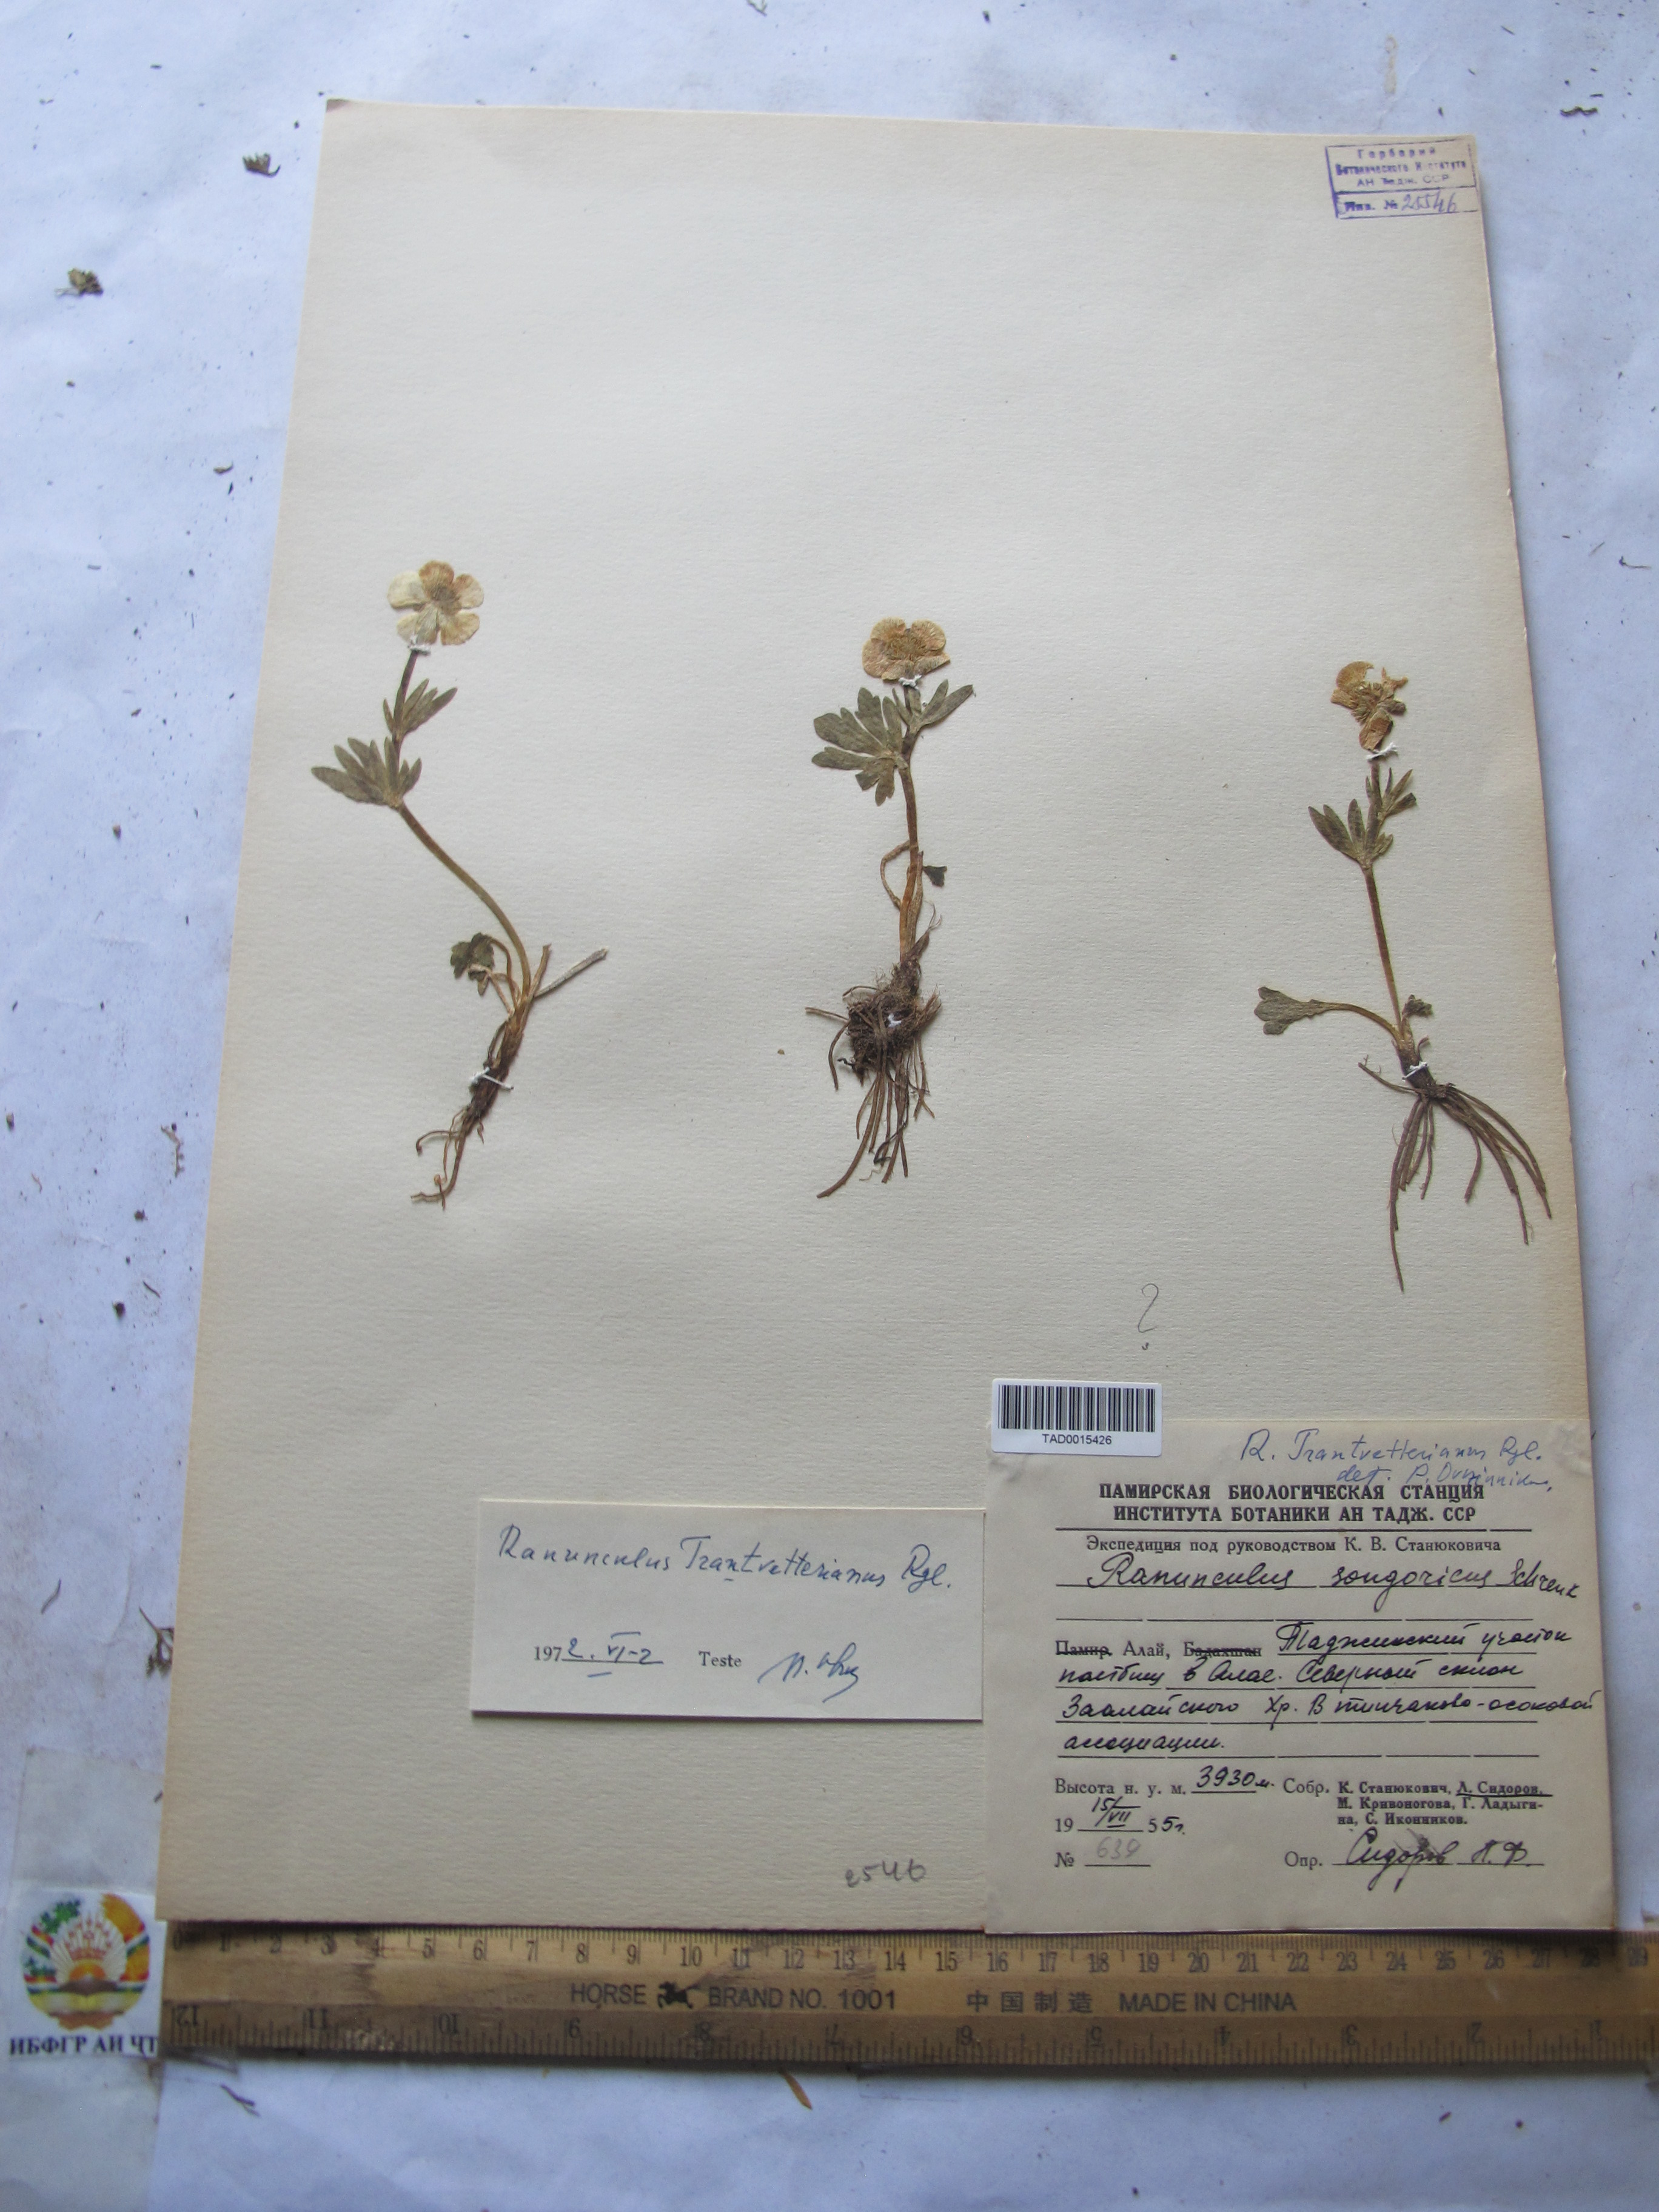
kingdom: Plantae
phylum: Tracheophyta
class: Magnoliopsida
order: Ranunculales
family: Ranunculaceae
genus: Ranunculus
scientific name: Ranunculus songaricus
